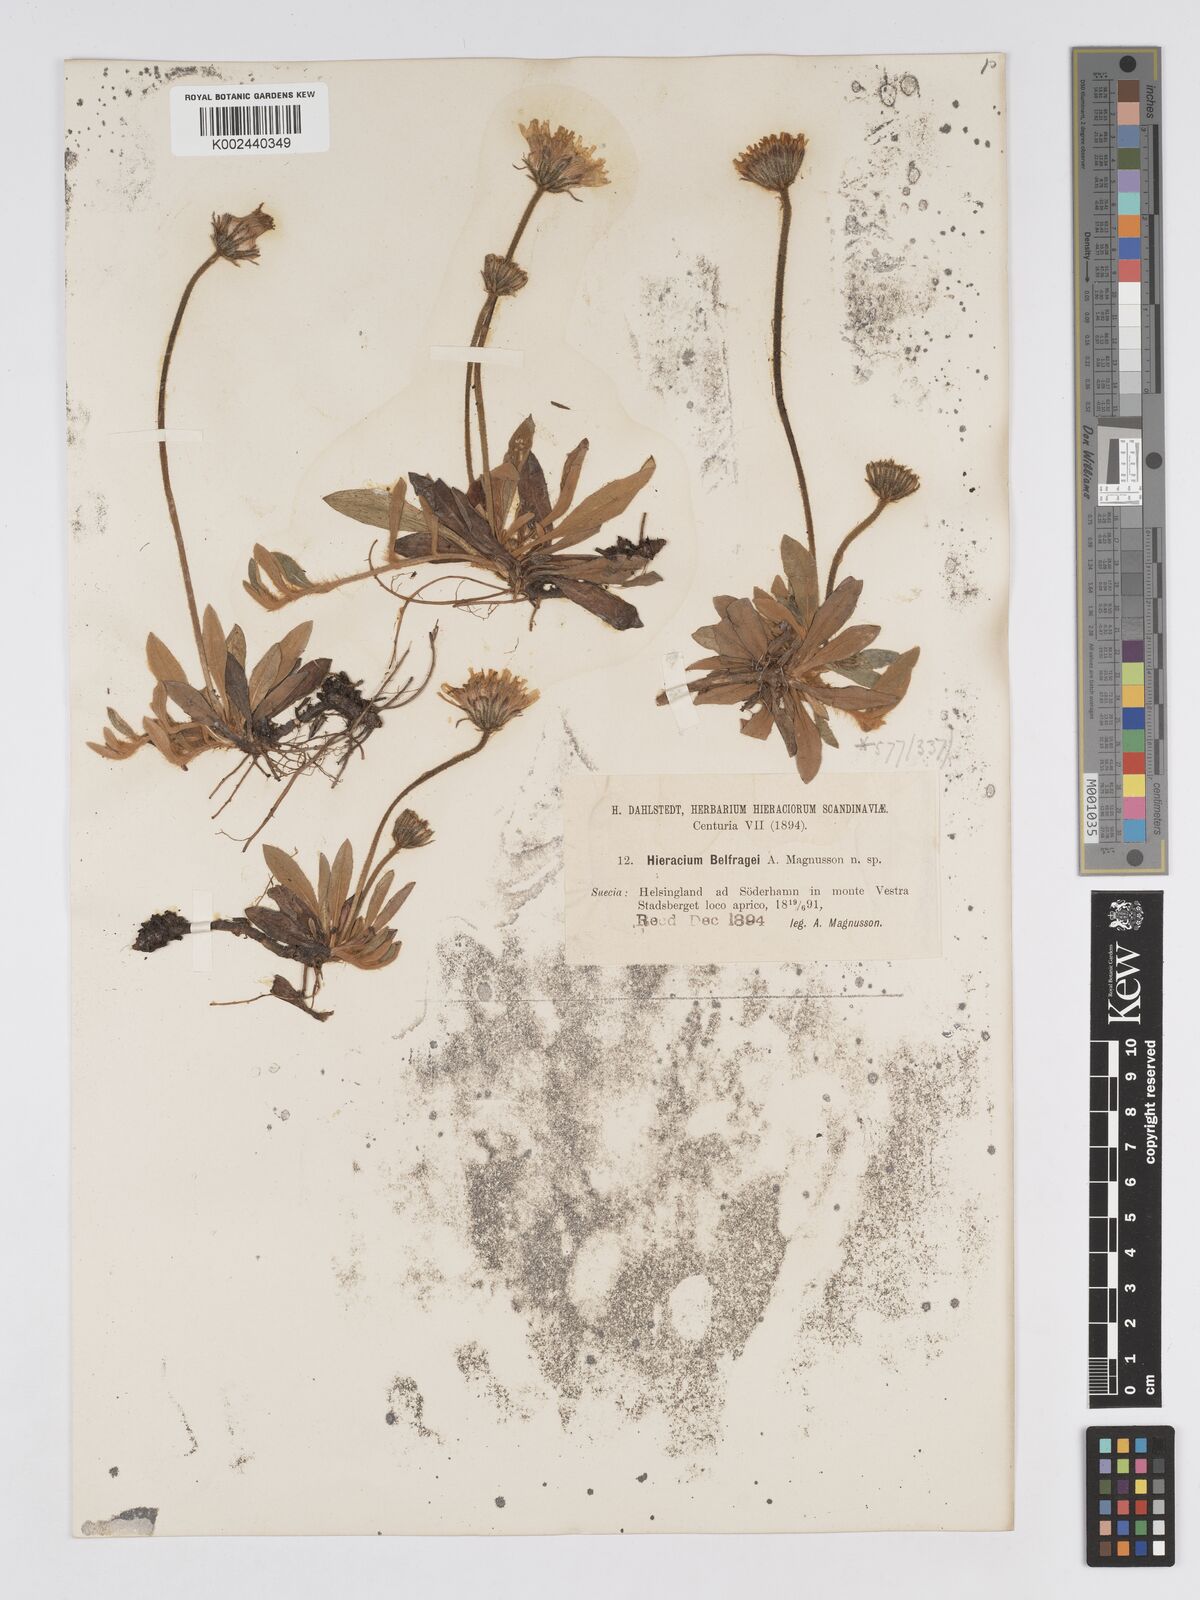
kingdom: Plantae
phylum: Tracheophyta
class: Magnoliopsida
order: Asterales
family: Asteraceae
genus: Pilosella
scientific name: Pilosella officinarum
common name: Mouse-ear hawkweed
